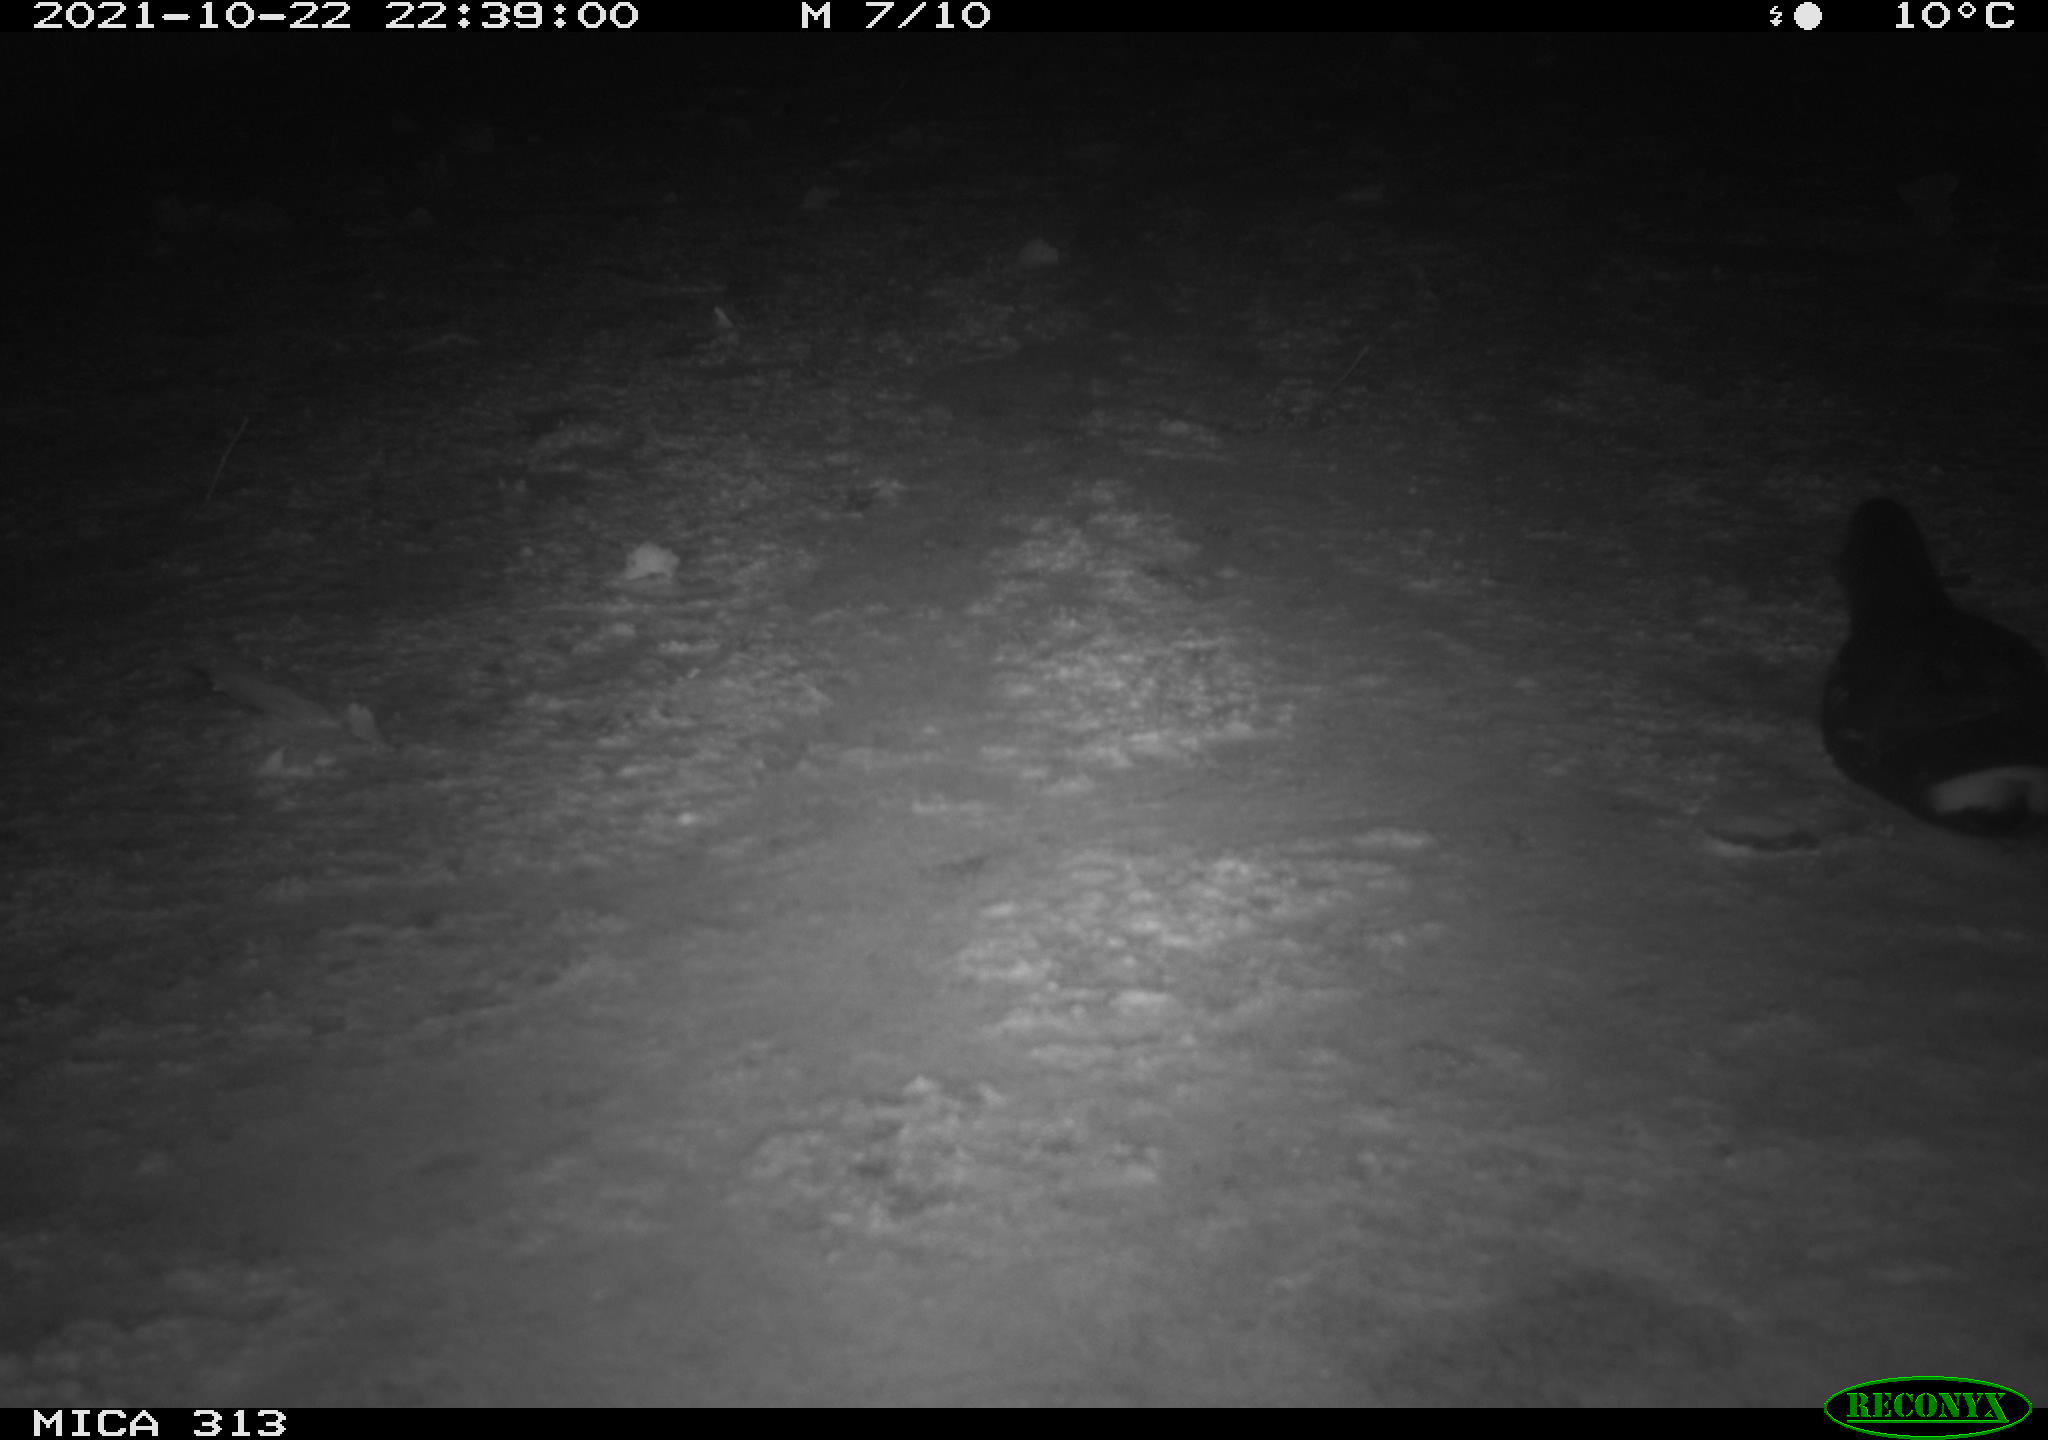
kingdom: Animalia
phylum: Chordata
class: Aves
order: Gruiformes
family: Rallidae
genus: Gallinula
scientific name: Gallinula chloropus
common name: Common moorhen
